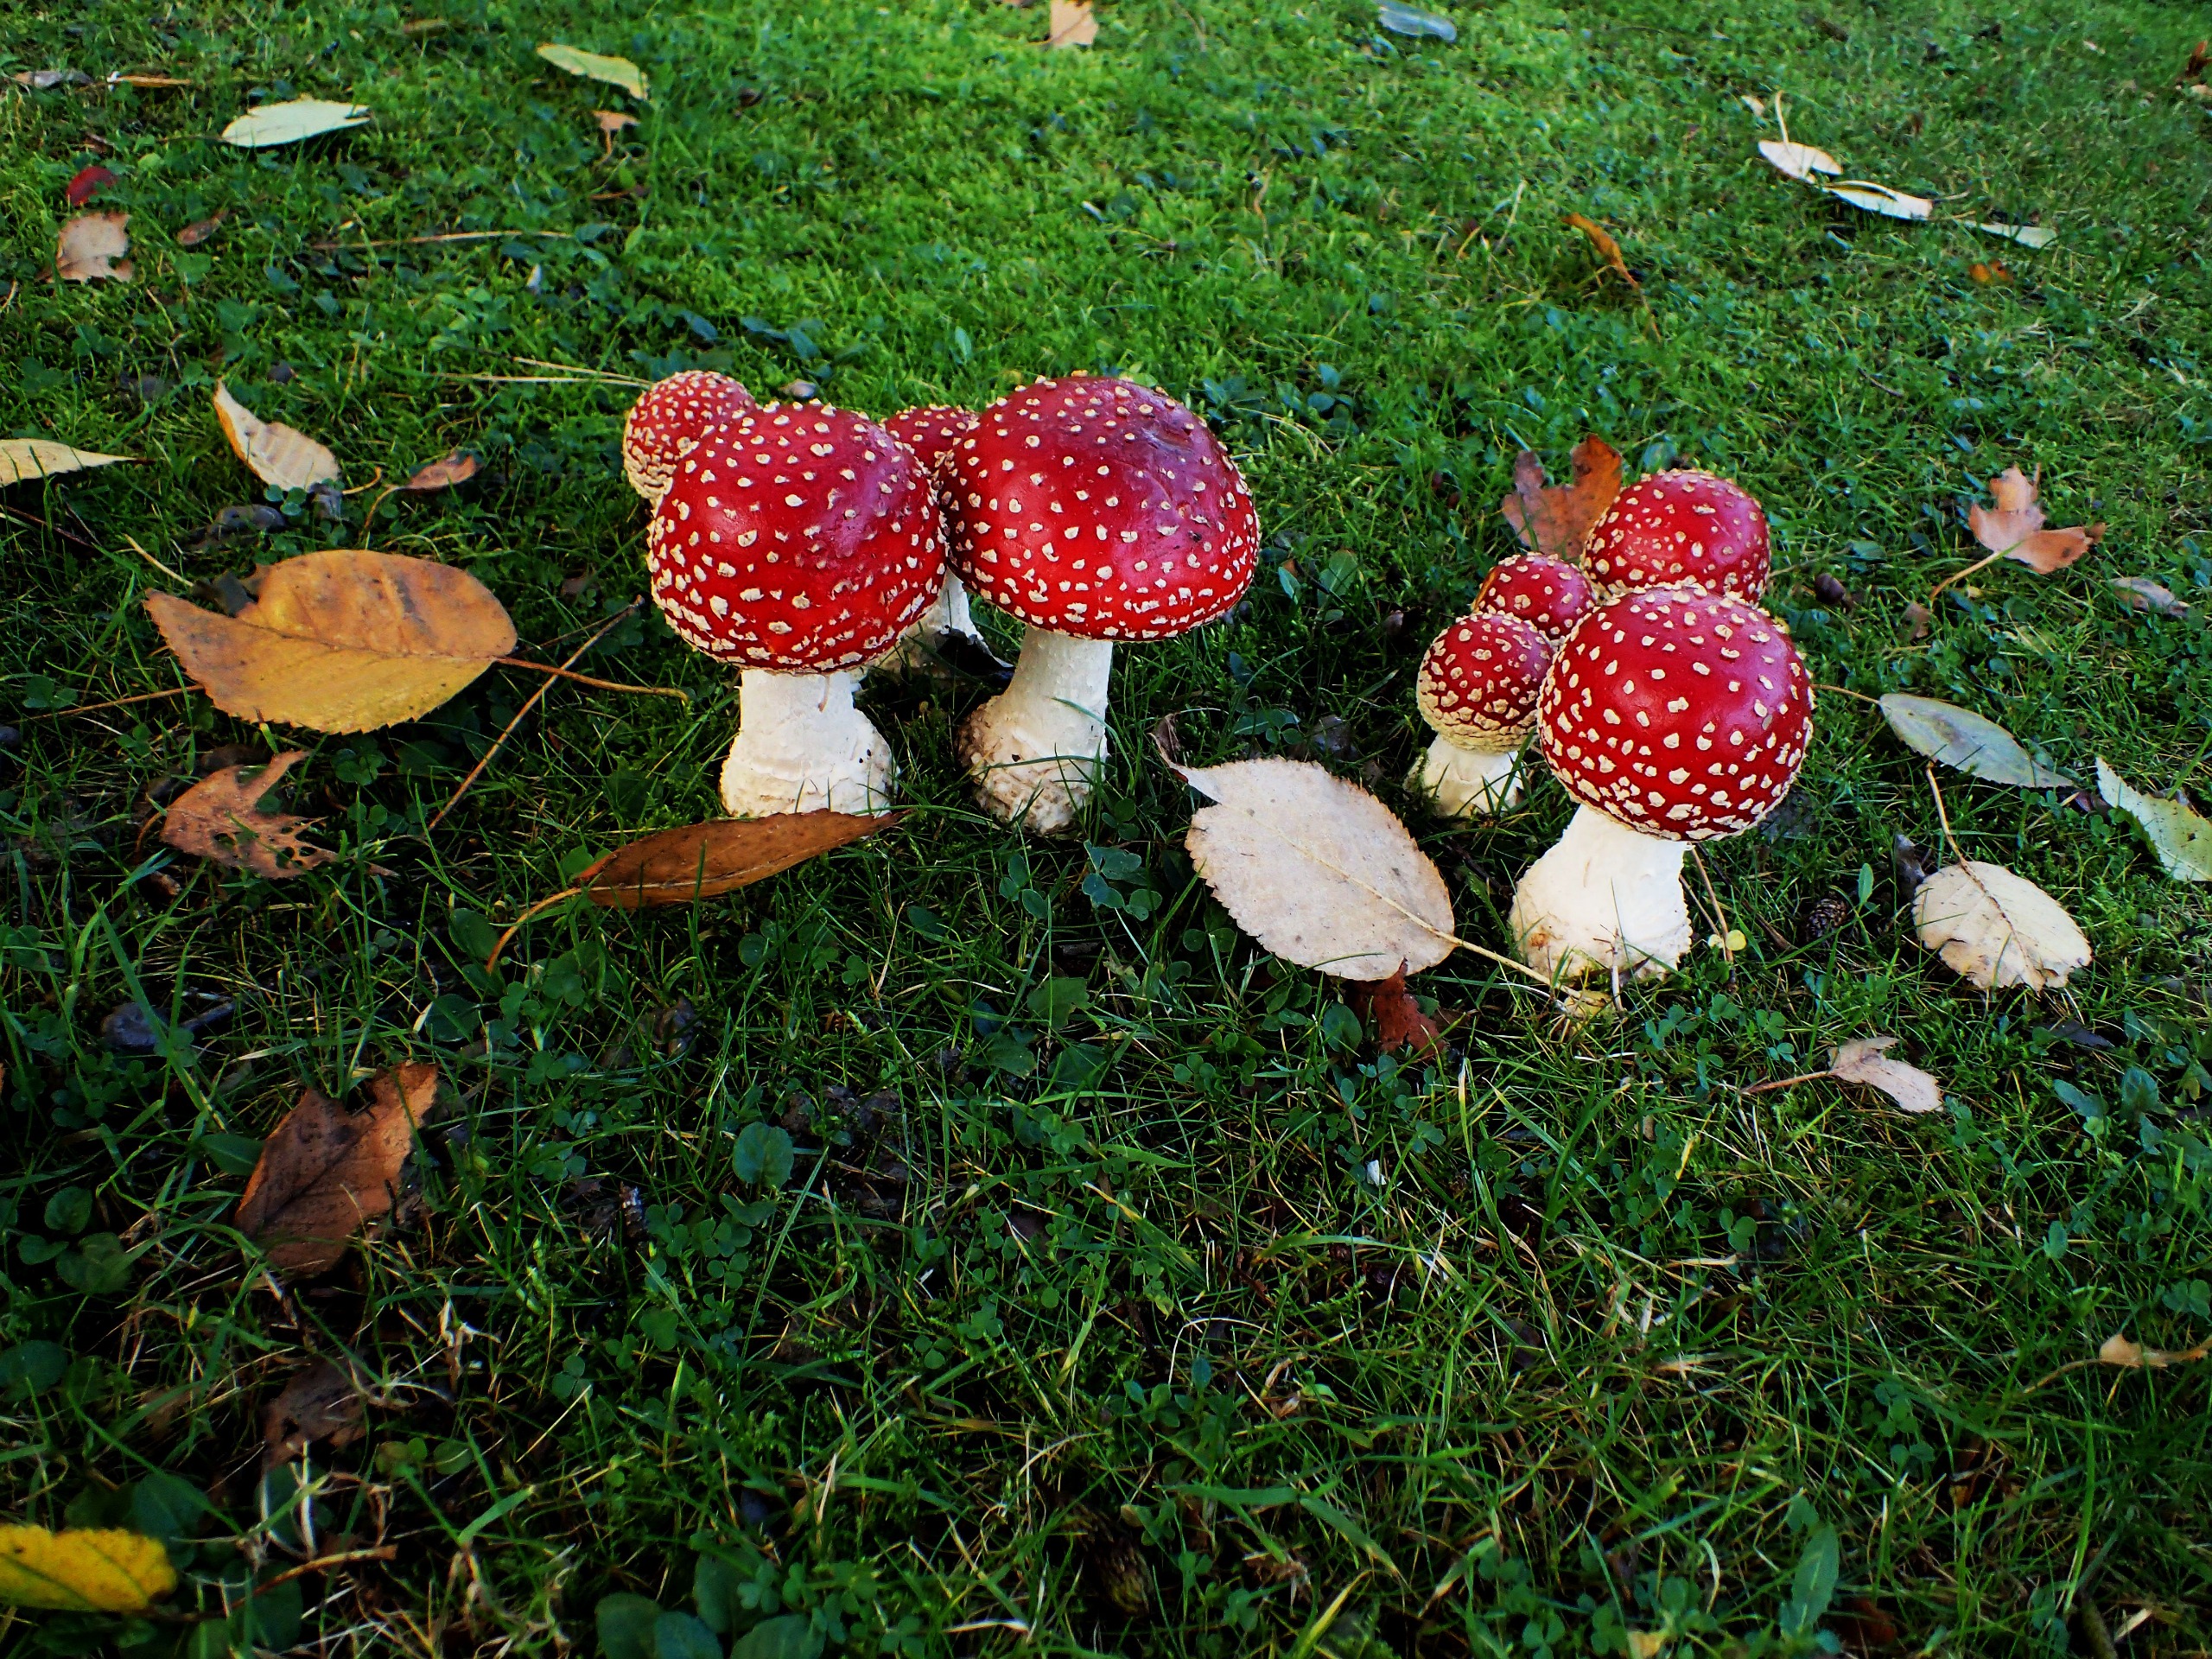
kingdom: Fungi
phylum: Basidiomycota
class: Agaricomycetes
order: Agaricales
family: Amanitaceae
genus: Amanita
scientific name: Amanita muscaria
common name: Rød fluesvamp
